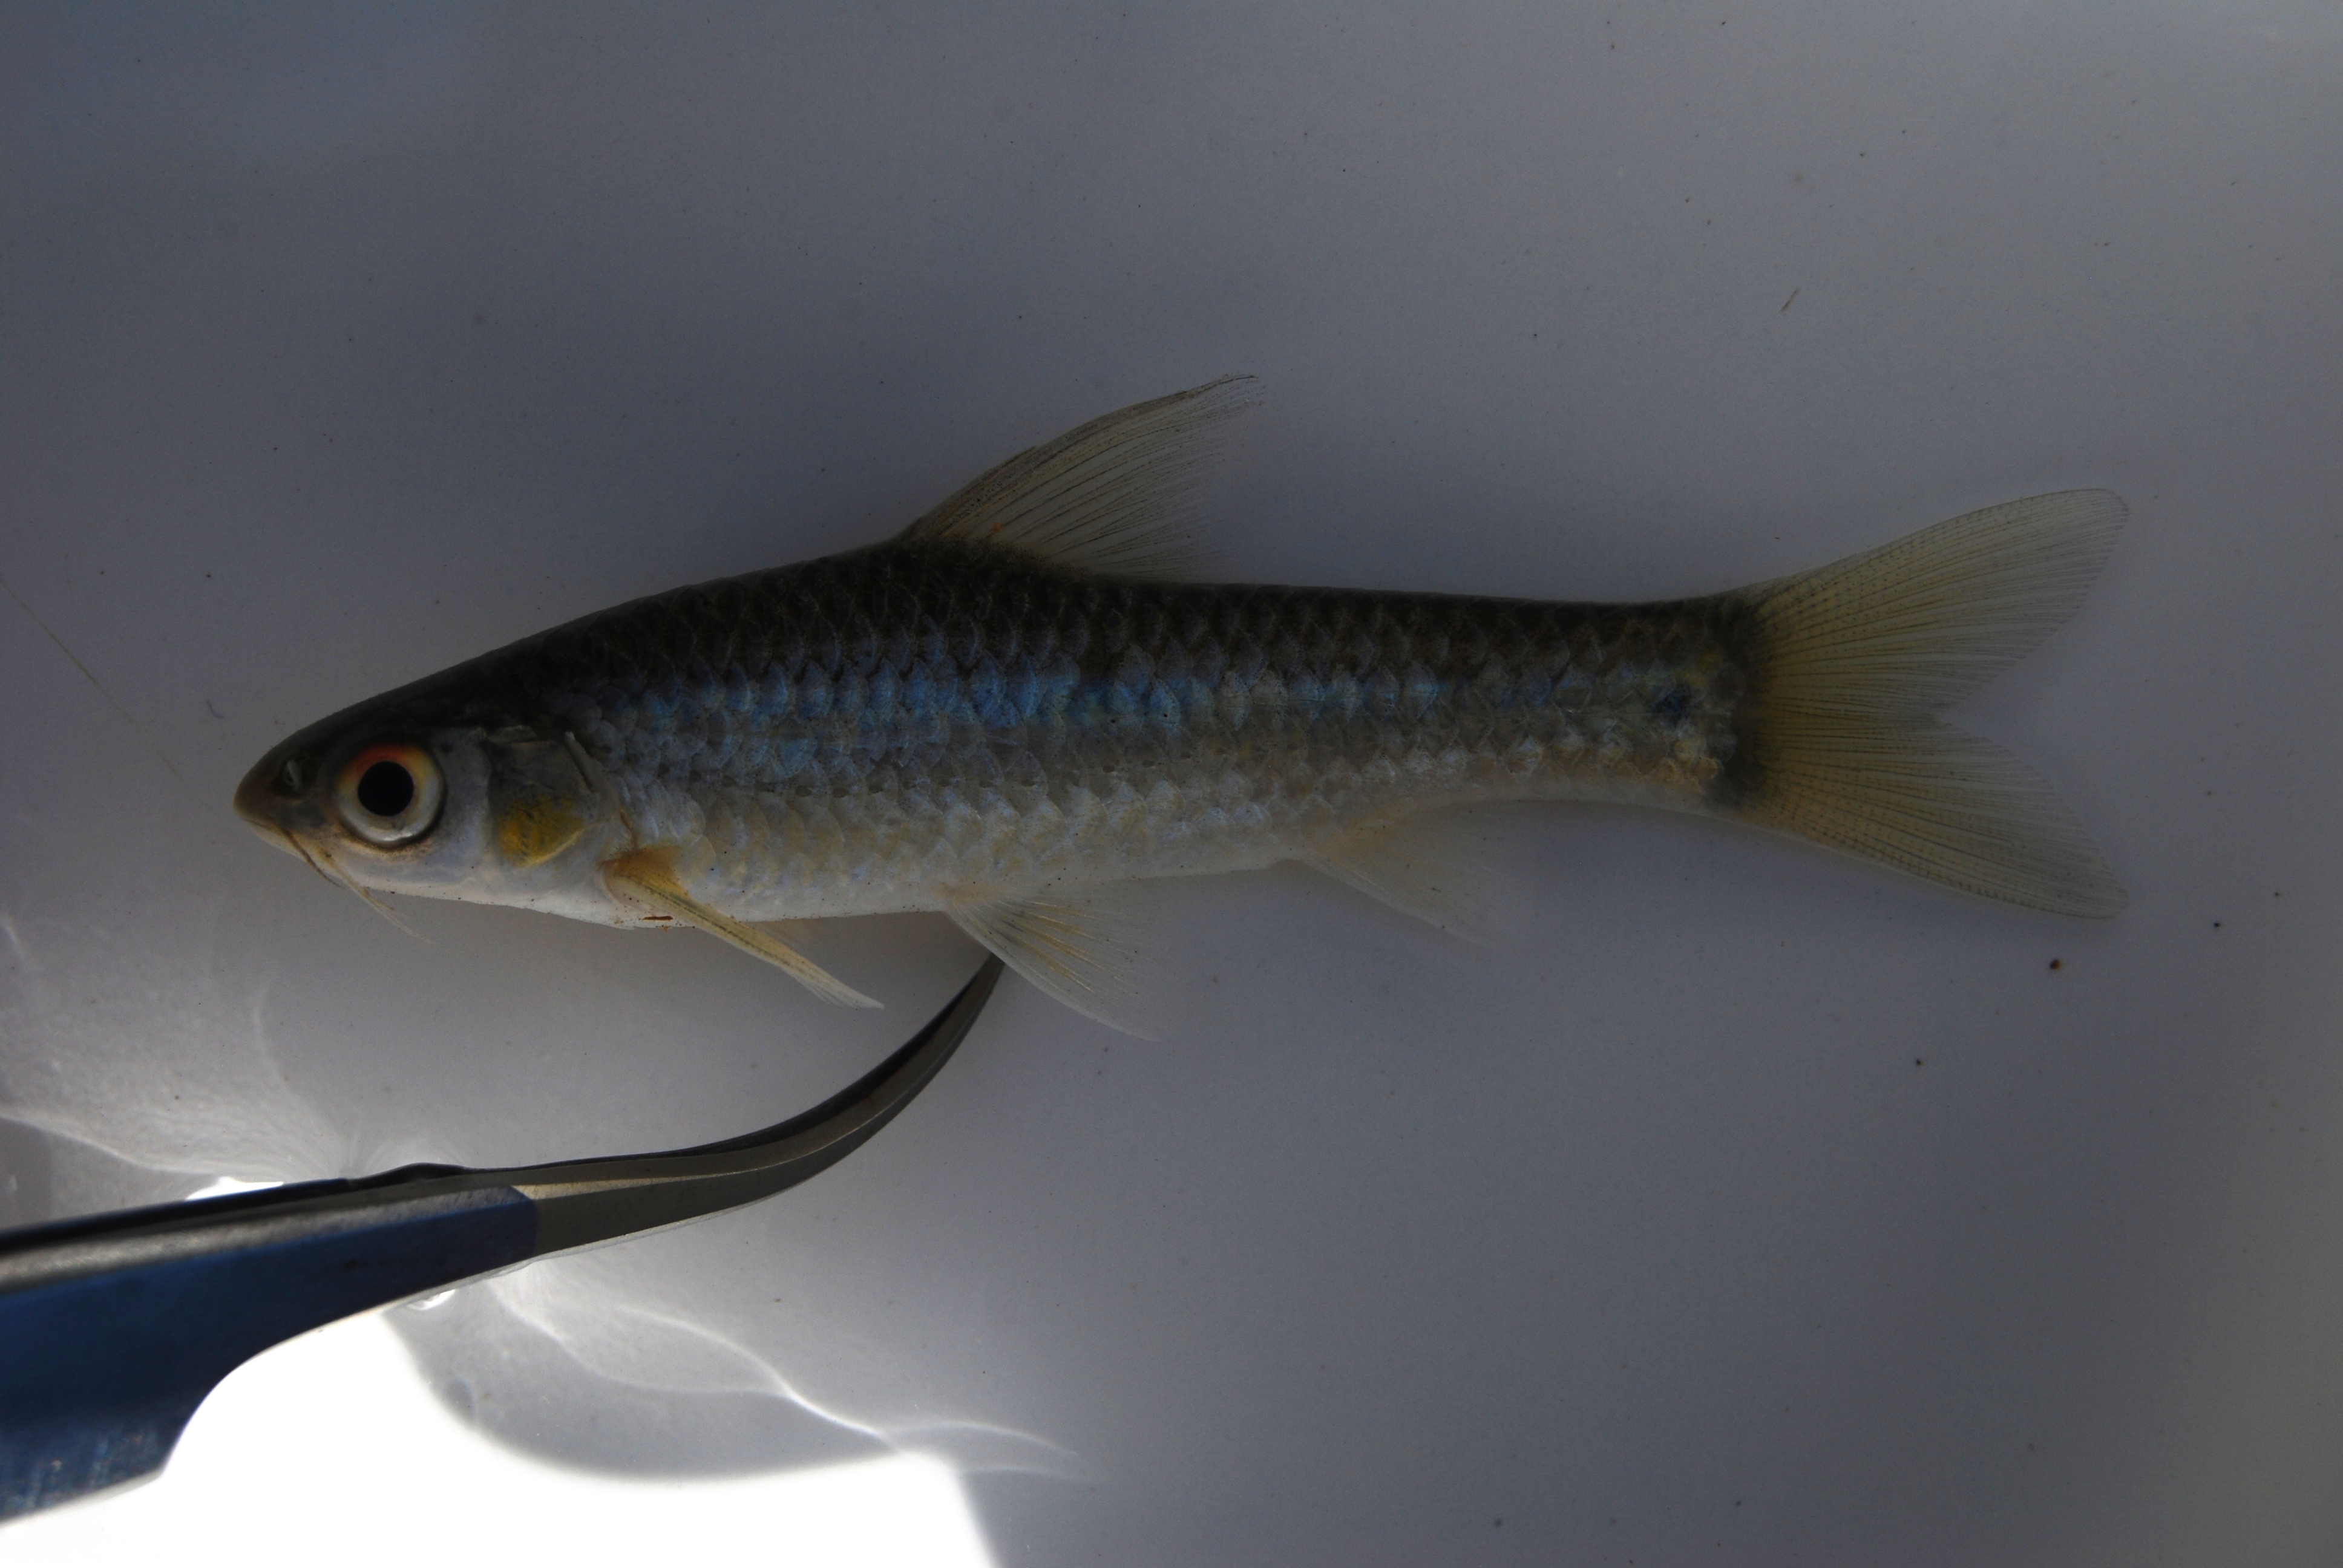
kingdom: Animalia
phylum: Chordata
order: Cypriniformes
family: Cyprinidae
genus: Enteromius
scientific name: Enteromius trimaculatus
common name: Threespot barb
